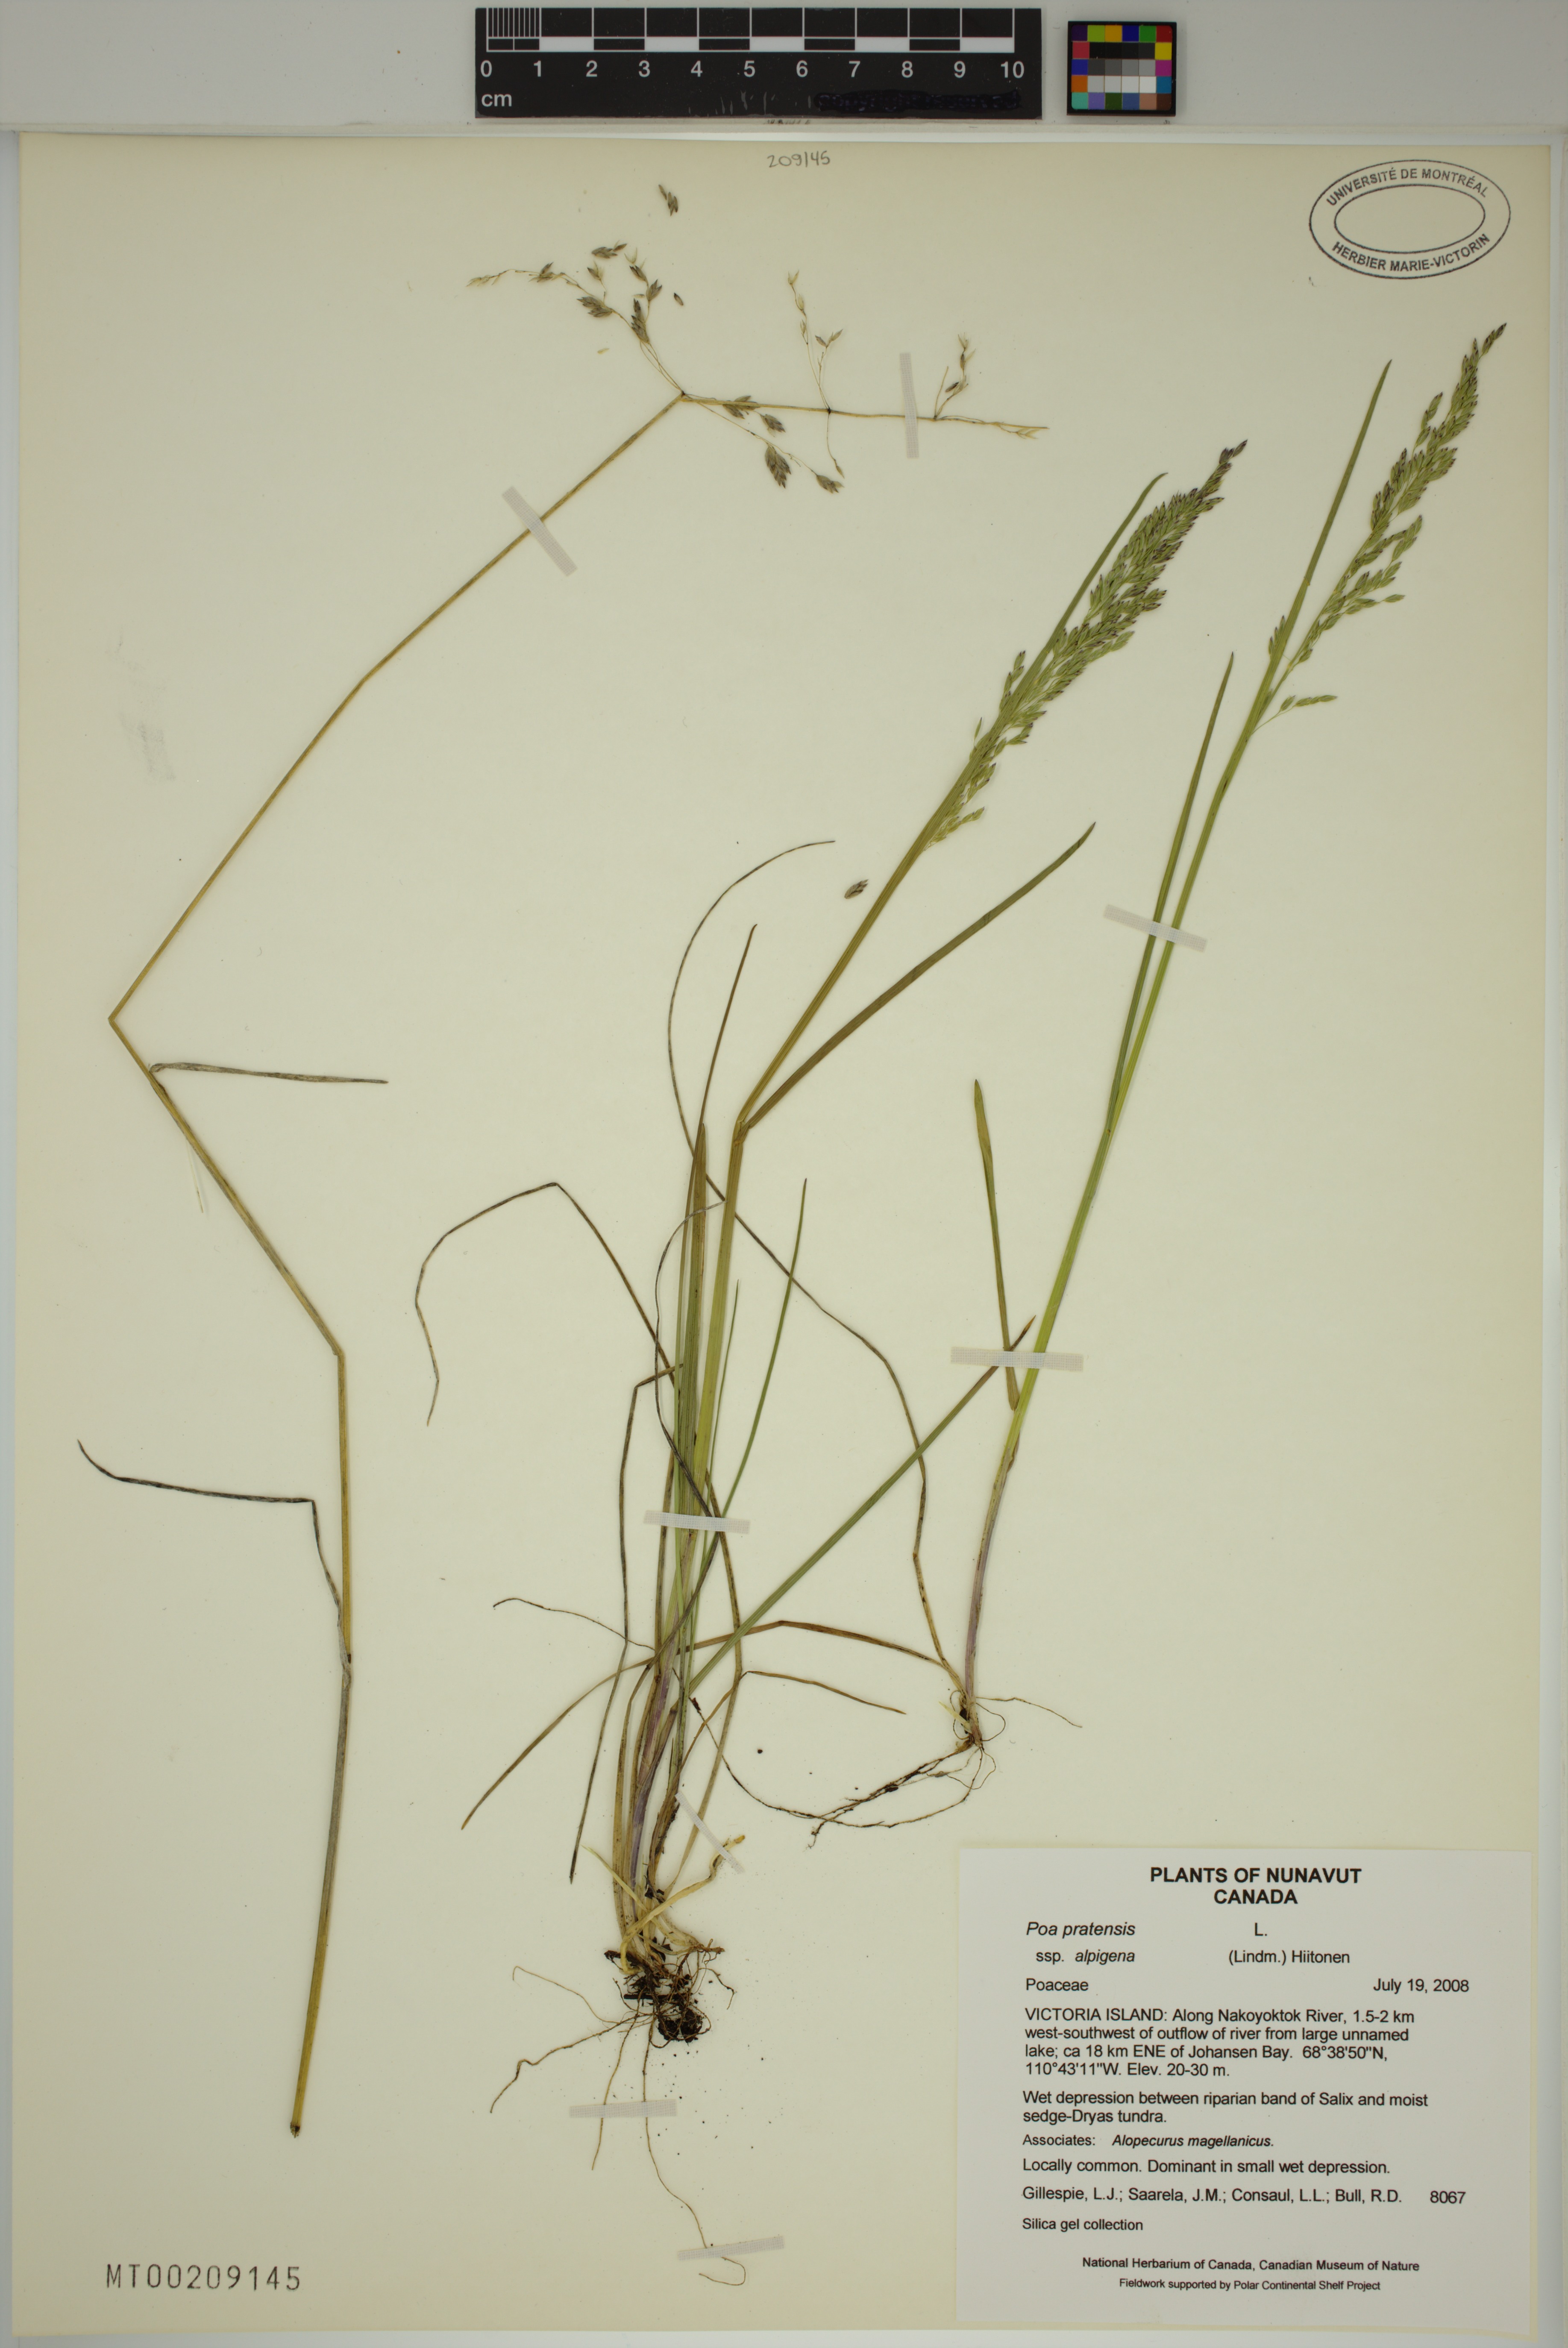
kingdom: Plantae
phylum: Tracheophyta
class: Liliopsida
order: Poales
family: Poaceae
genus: Poa
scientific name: Poa alpigena
